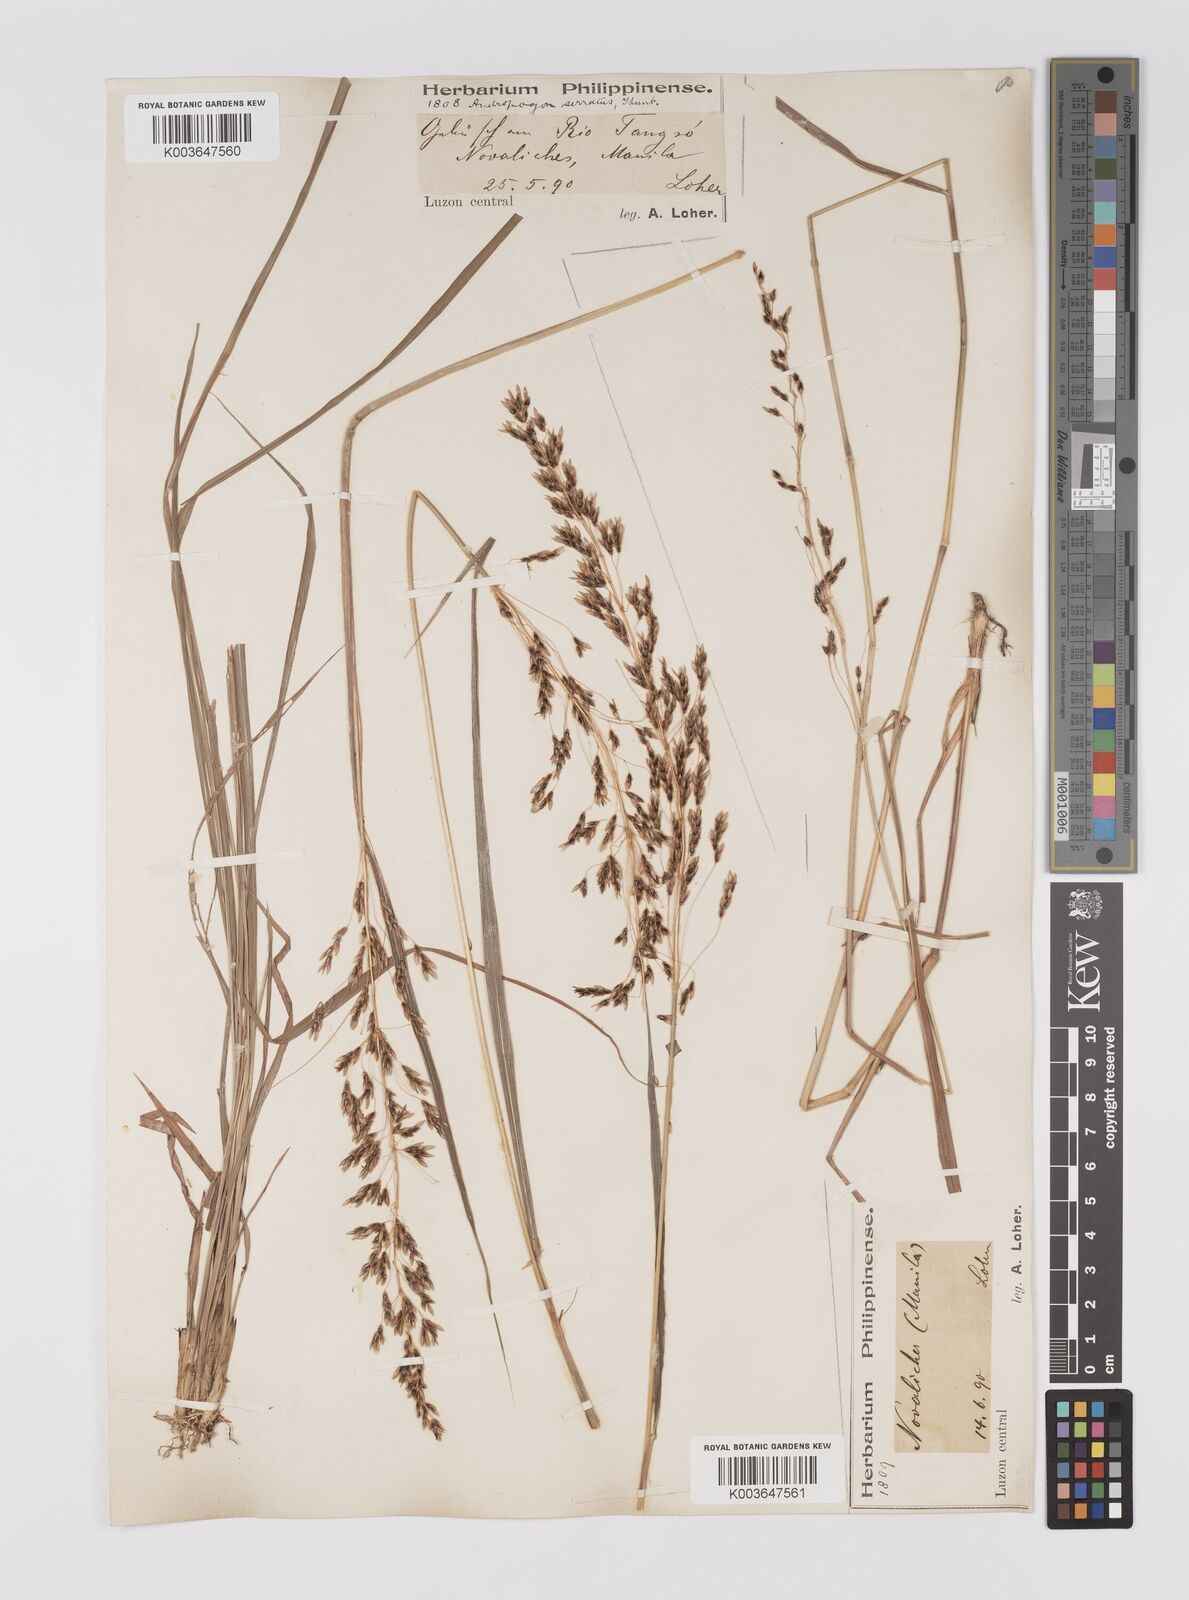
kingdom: Plantae
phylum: Tracheophyta
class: Liliopsida
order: Poales
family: Poaceae
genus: Sorghum
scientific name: Sorghum nitidum
